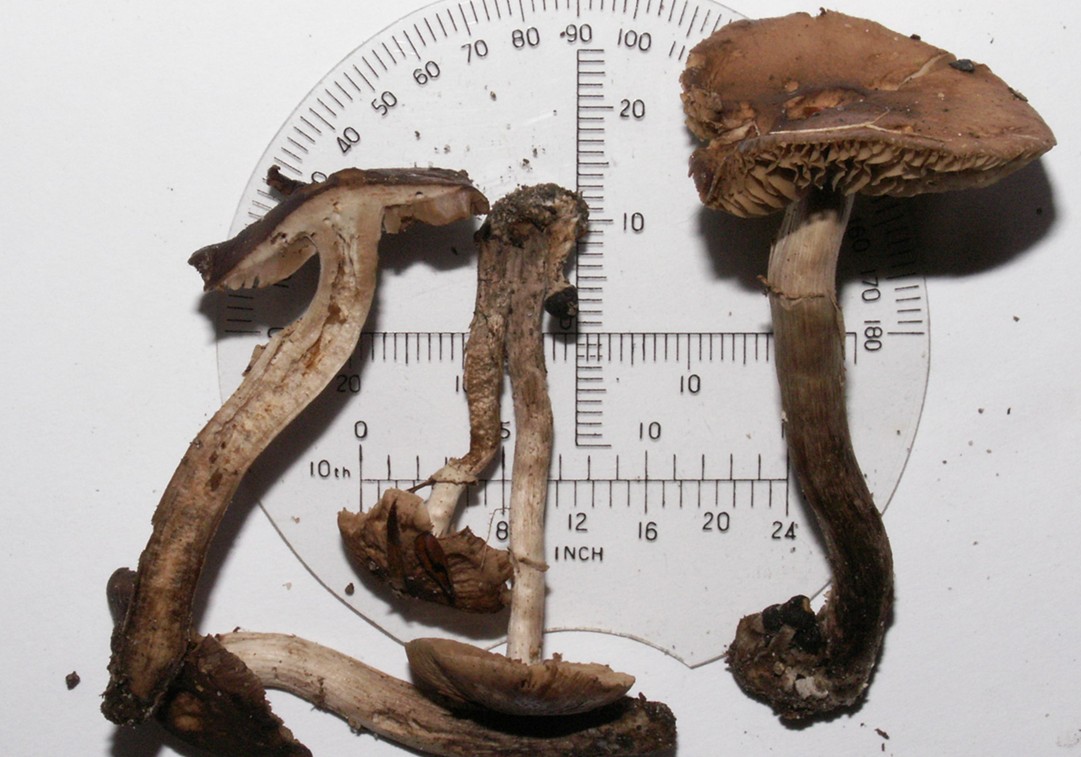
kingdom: Fungi
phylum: Basidiomycota
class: Agaricomycetes
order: Agaricales
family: Tubariaceae
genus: Cyclocybe
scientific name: Cyclocybe erebia
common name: mørk agerhat
